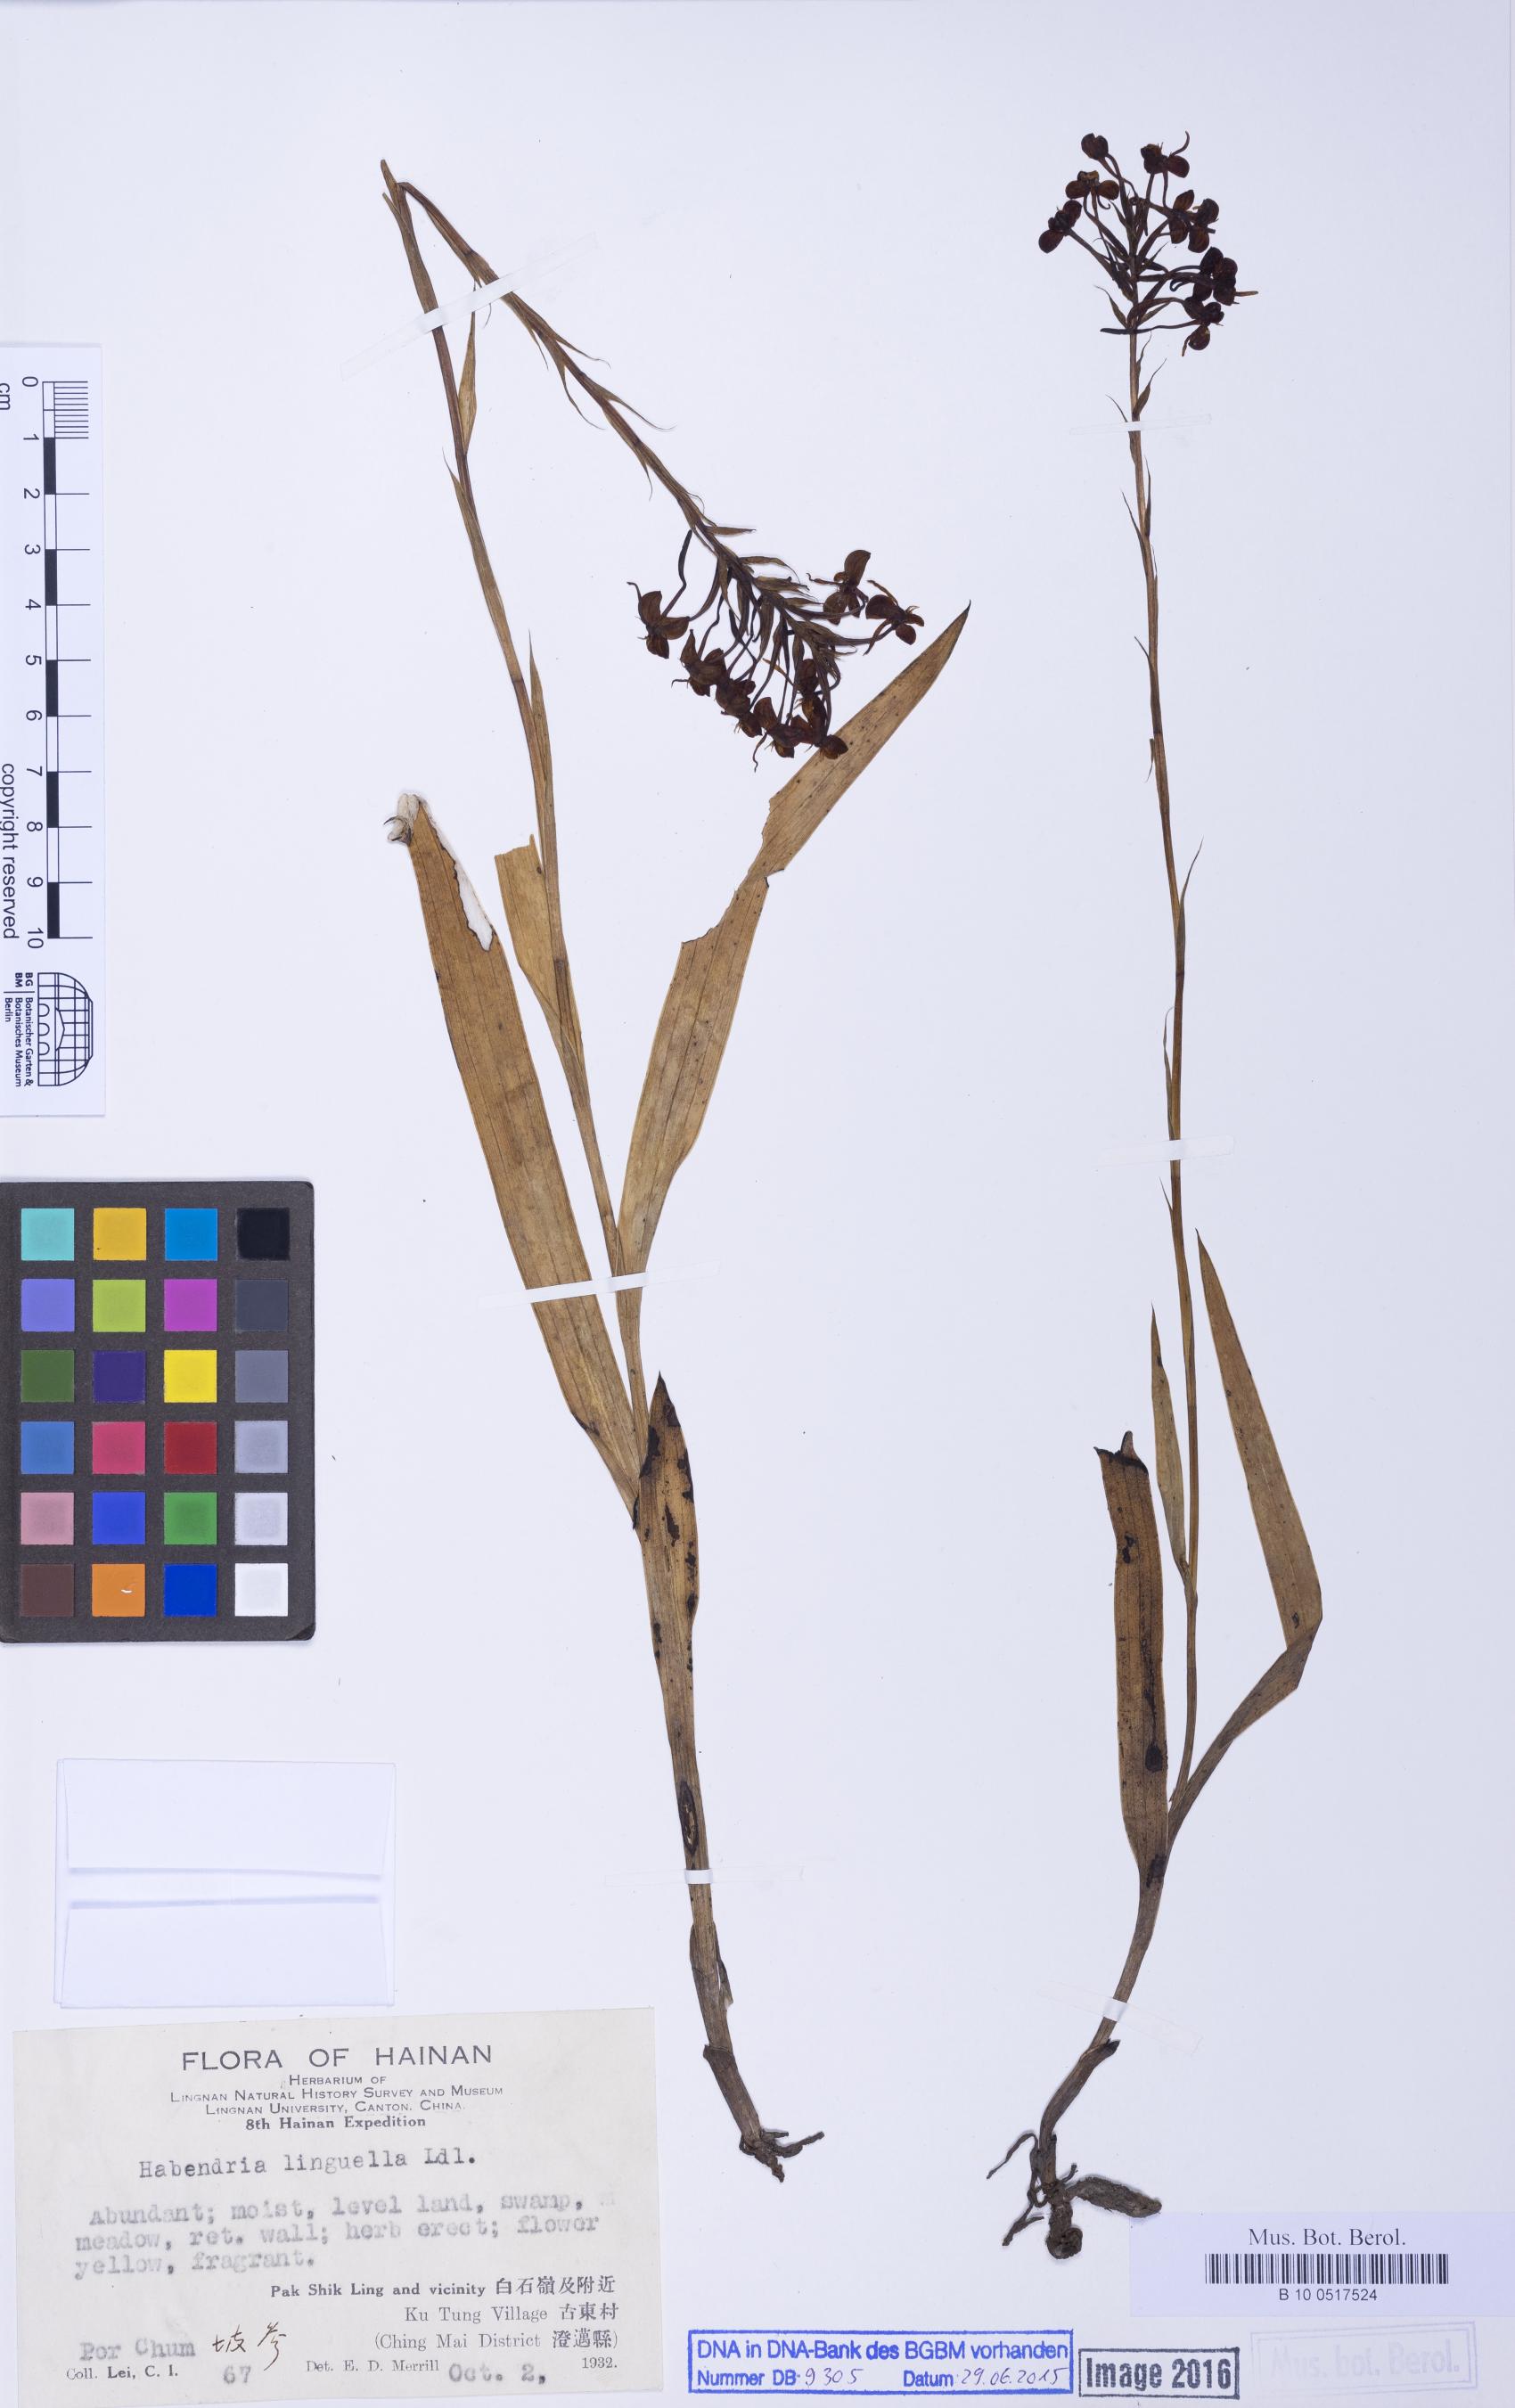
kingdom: Plantae
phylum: Tracheophyta
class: Liliopsida
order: Asparagales
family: Orchidaceae
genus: Habenaria
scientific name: Habenaria linguella
